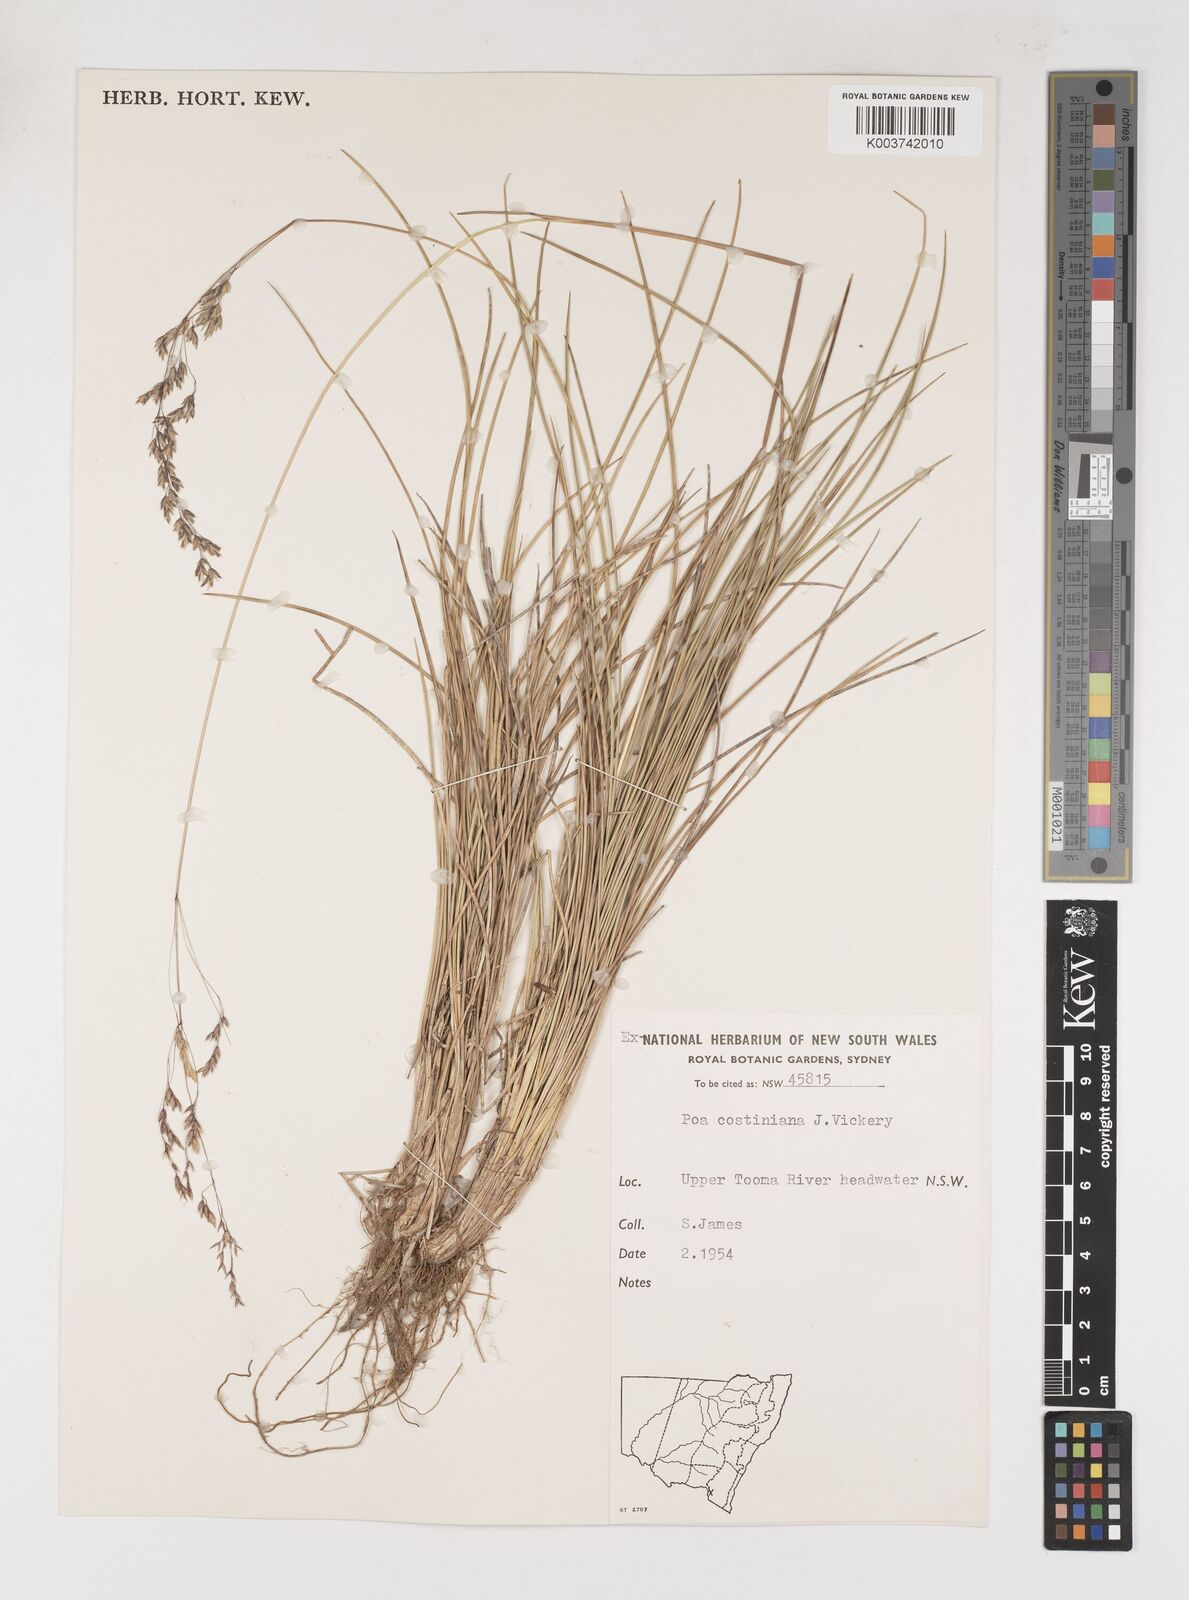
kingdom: Plantae
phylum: Tracheophyta
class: Liliopsida
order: Poales
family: Poaceae
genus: Poa
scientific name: Poa costiniana
